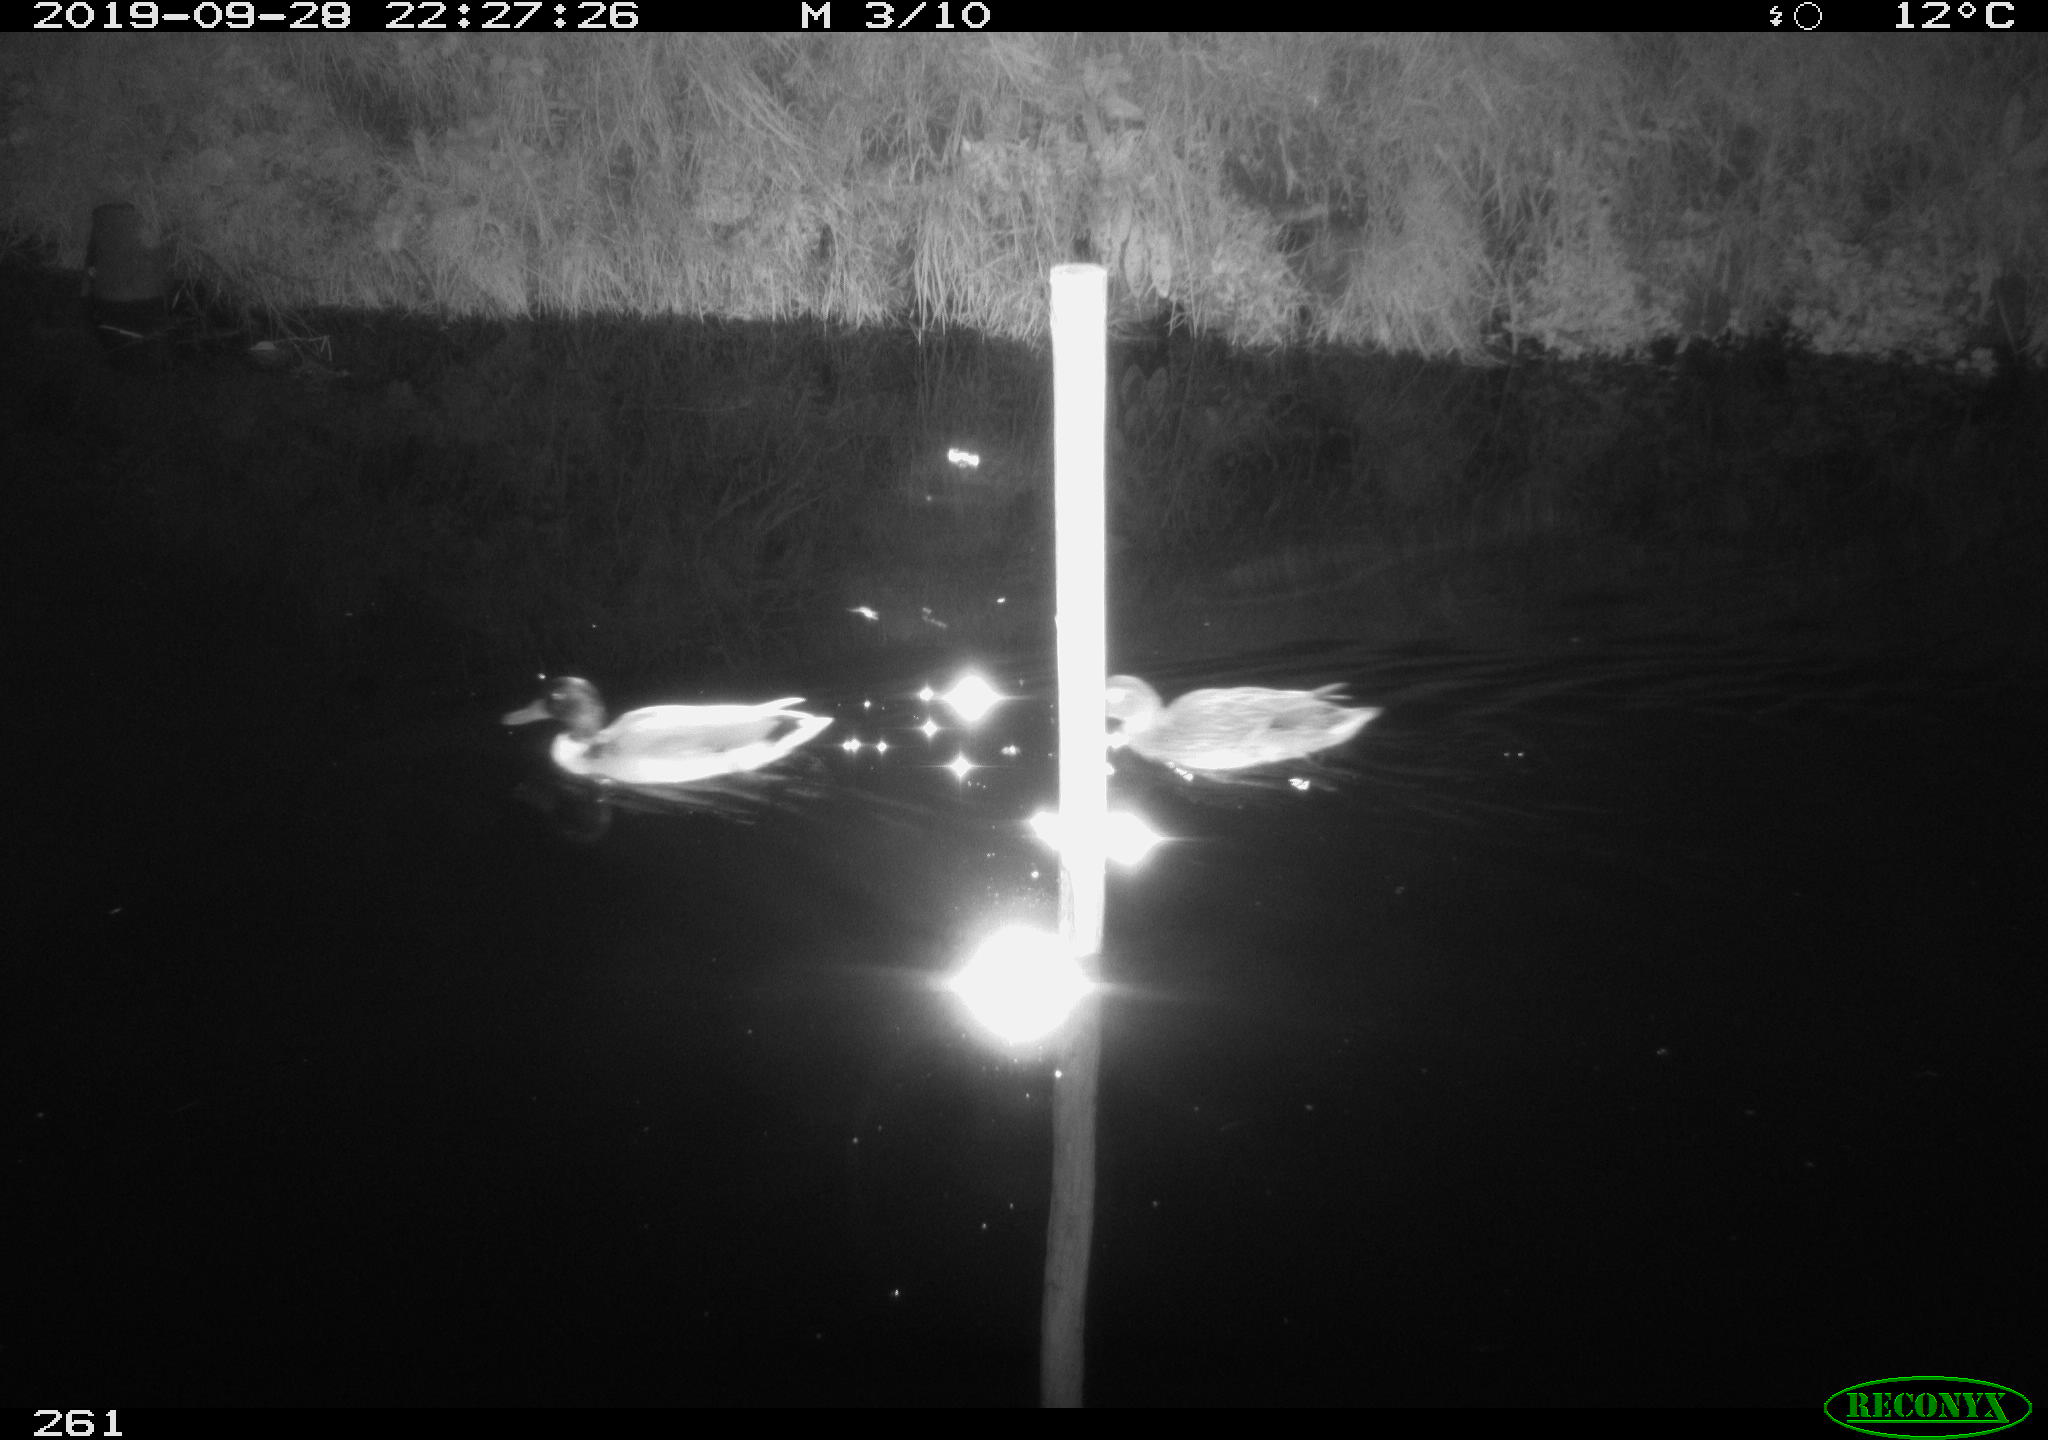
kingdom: Animalia
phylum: Chordata
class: Aves
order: Anseriformes
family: Anatidae
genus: Anas
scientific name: Anas platyrhynchos
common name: Mallard
